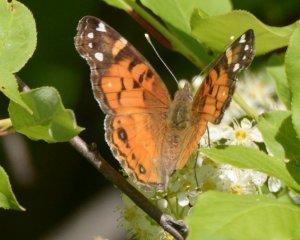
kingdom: Animalia
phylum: Arthropoda
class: Insecta
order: Lepidoptera
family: Nymphalidae
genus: Vanessa
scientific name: Vanessa virginiensis
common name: American Lady
